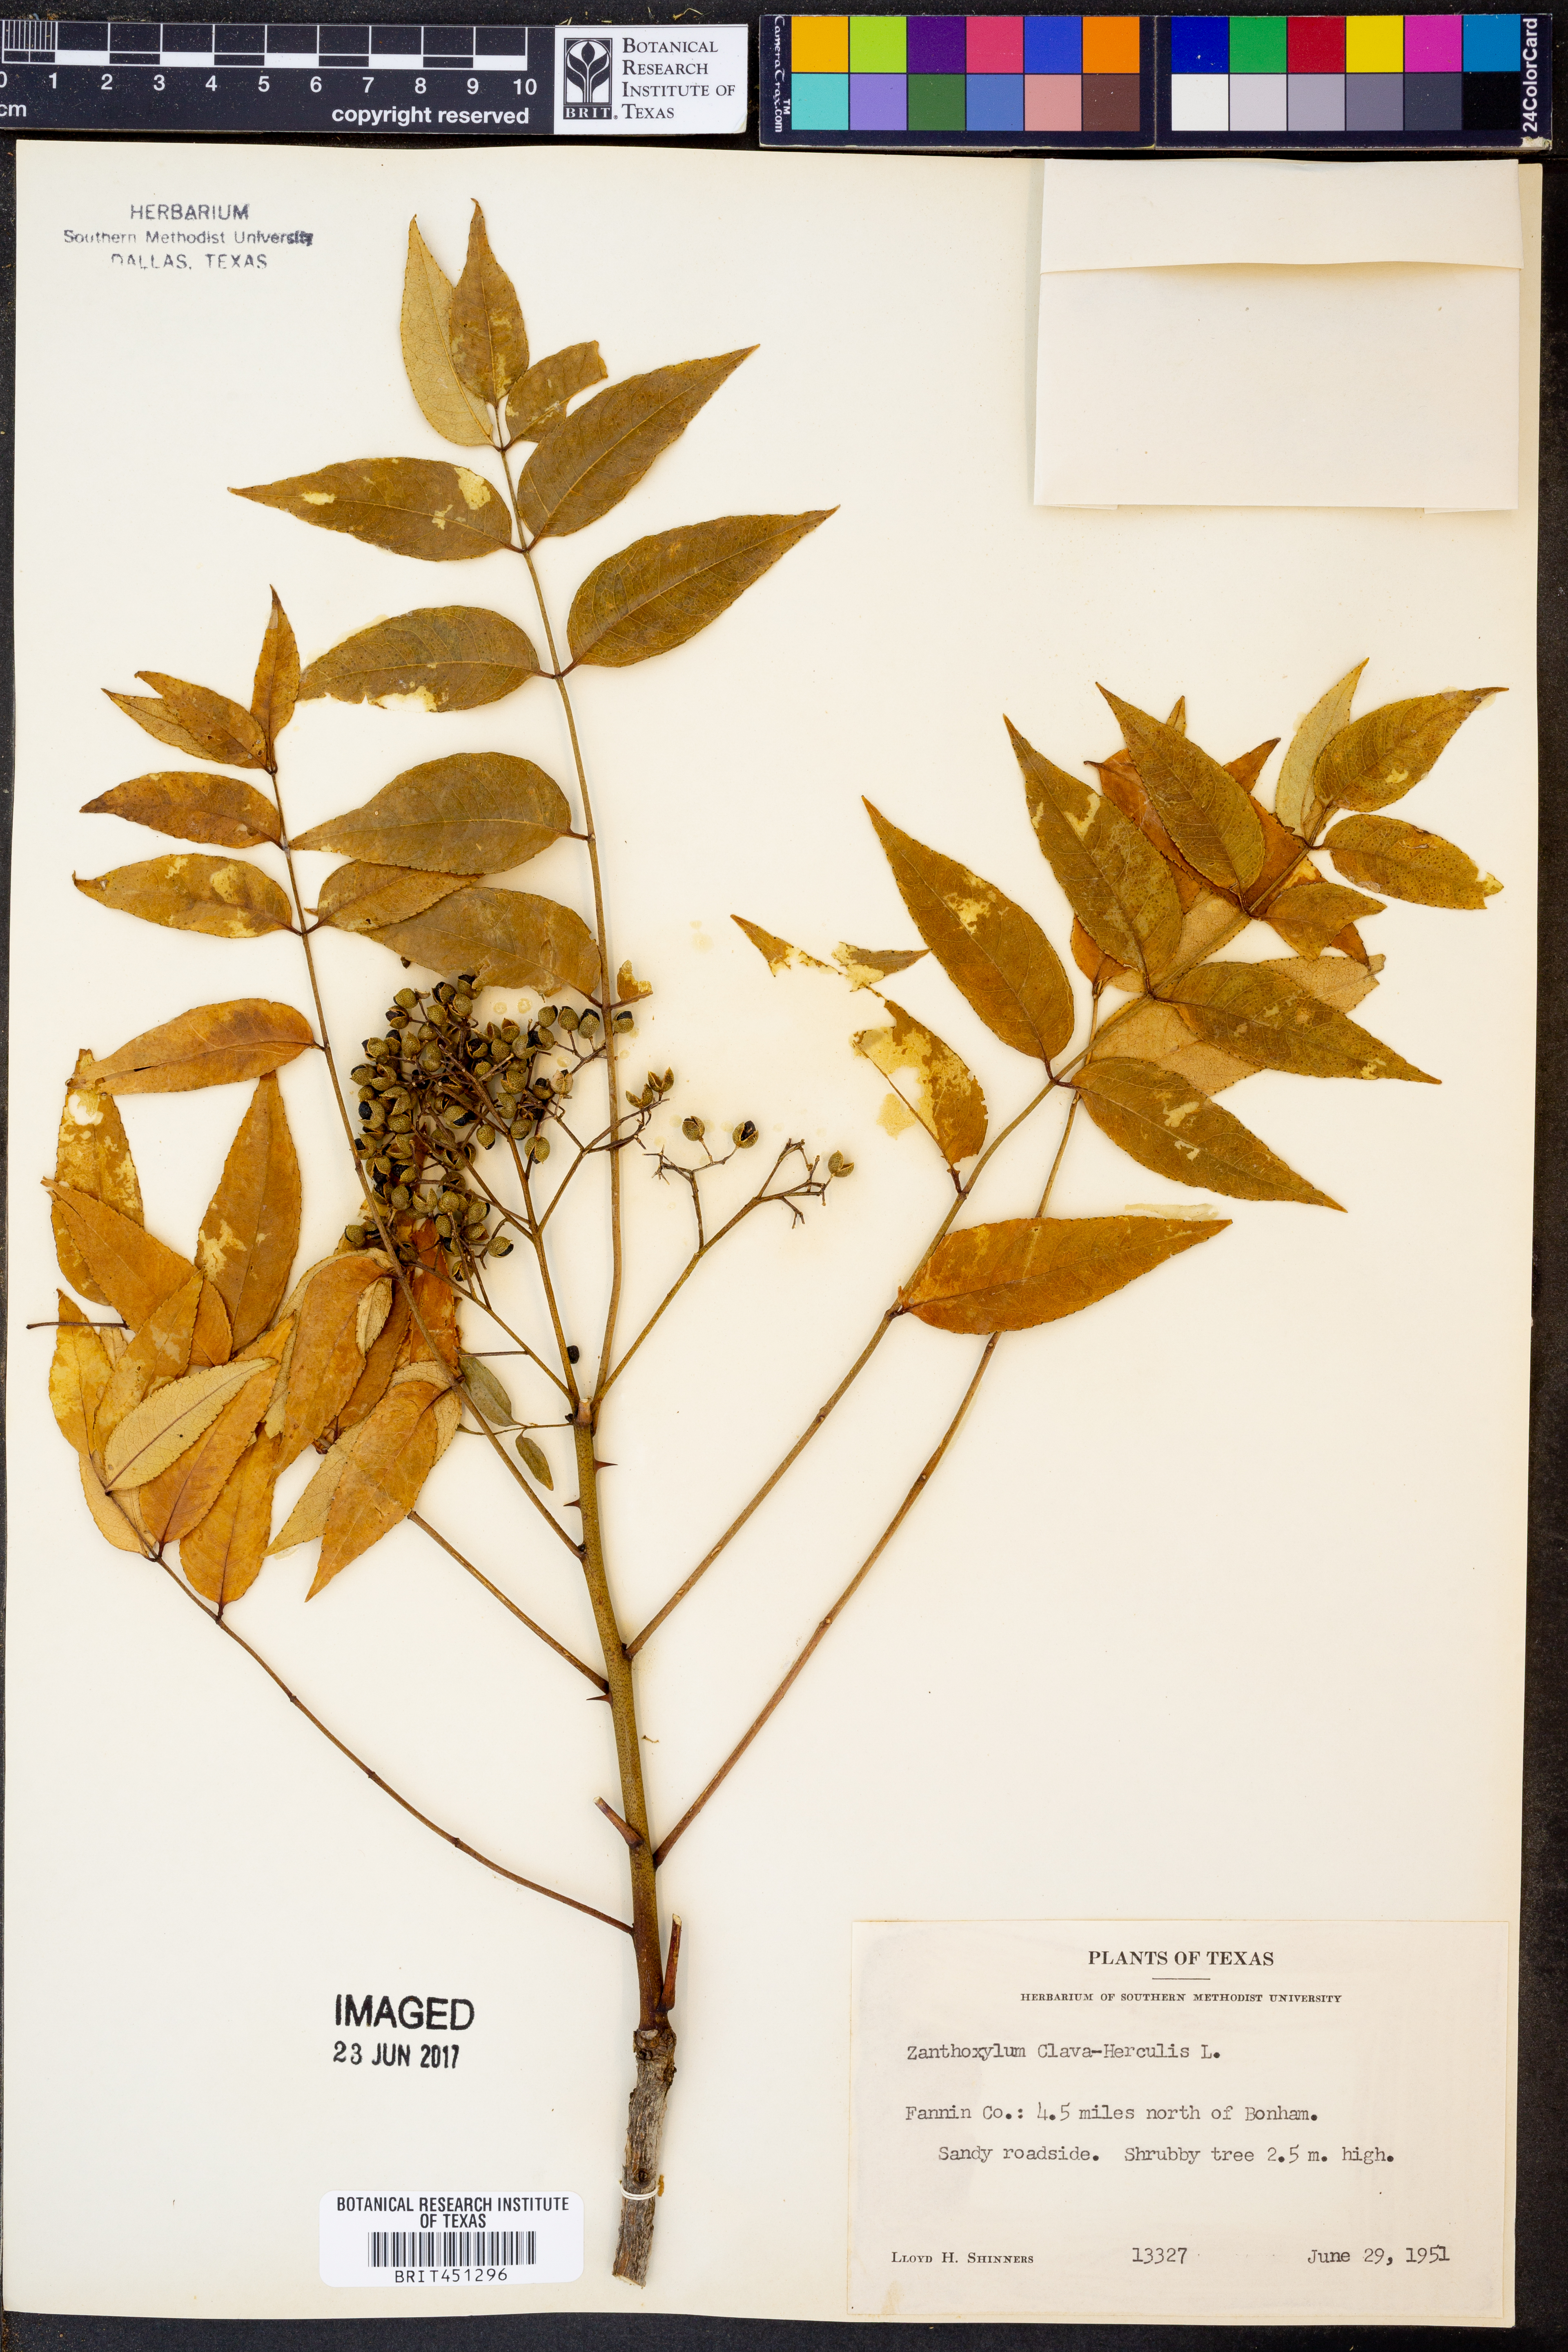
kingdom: Plantae
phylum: Tracheophyta
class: Magnoliopsida
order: Sapindales
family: Rutaceae
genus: Zanthoxylum
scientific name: Zanthoxylum avicennae
